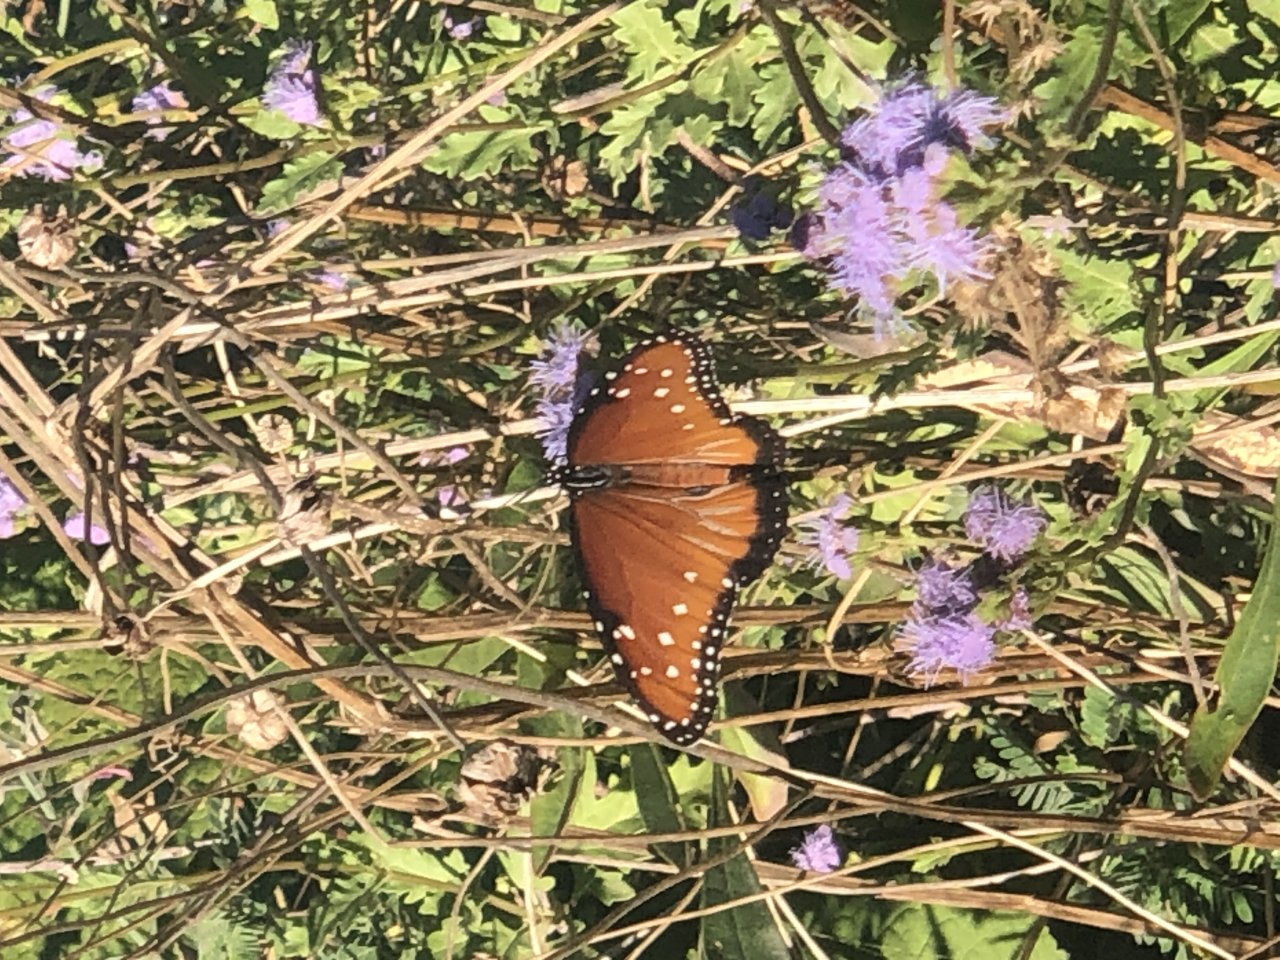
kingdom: Animalia
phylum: Arthropoda
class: Insecta
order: Lepidoptera
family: Nymphalidae
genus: Danaus
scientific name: Danaus gilippus
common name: Queen
